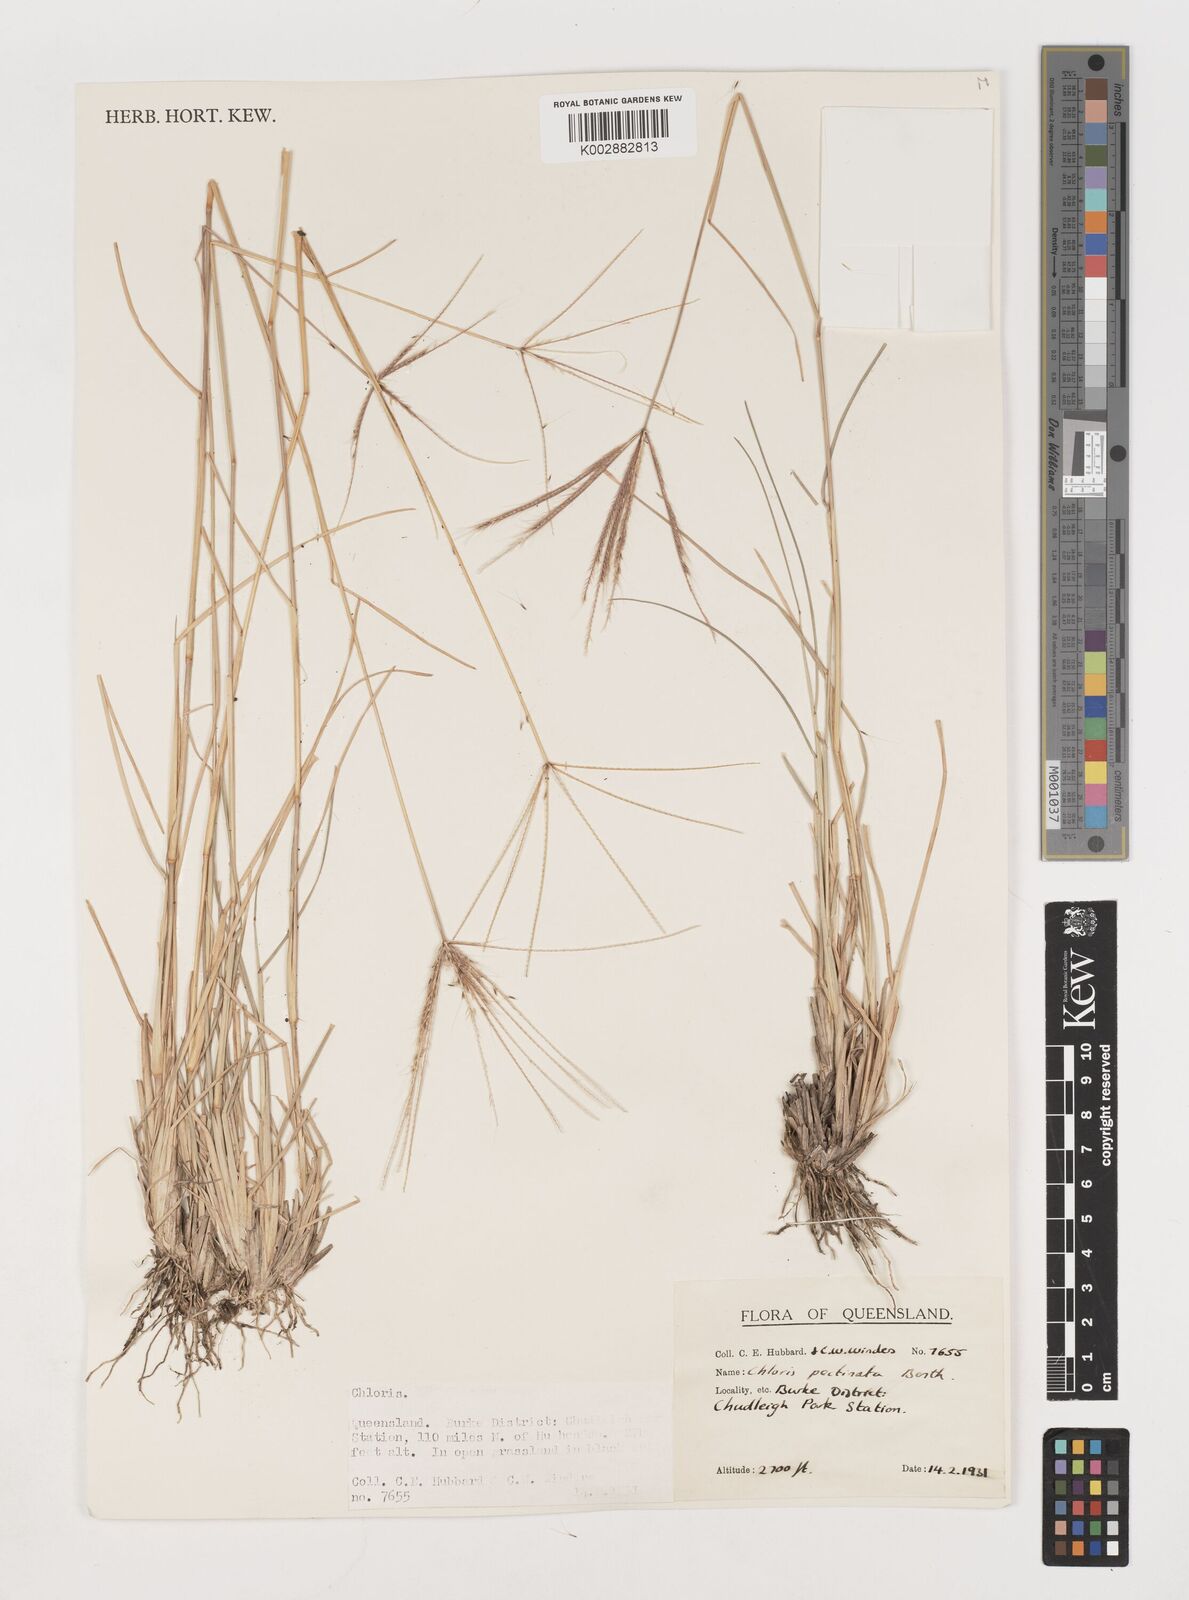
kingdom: Plantae
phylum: Tracheophyta
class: Liliopsida
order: Poales
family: Poaceae
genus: Chloris
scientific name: Chloris pectinata
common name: Comb windmill grass
